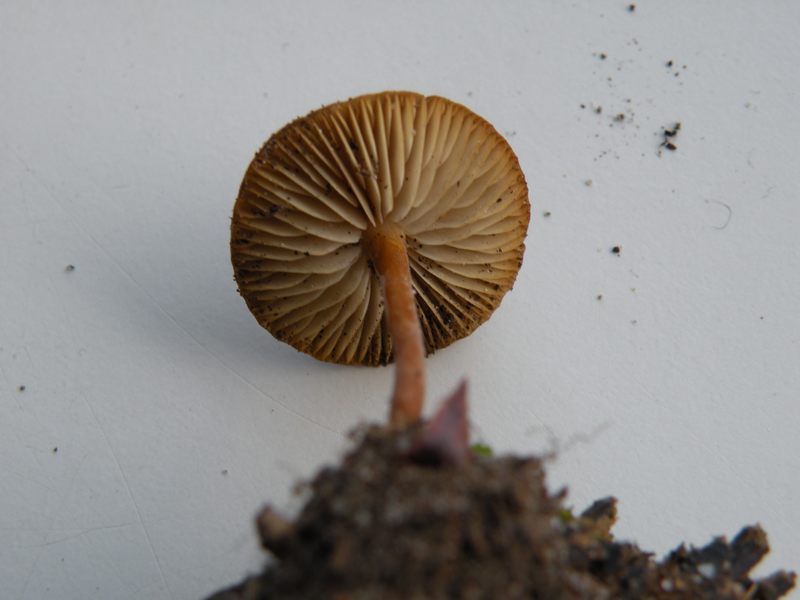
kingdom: Fungi
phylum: Basidiomycota
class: Agaricomycetes
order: Agaricales
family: Physalacriaceae
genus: Strobilurus
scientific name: Strobilurus tenacellus
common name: sommer-koglehat
